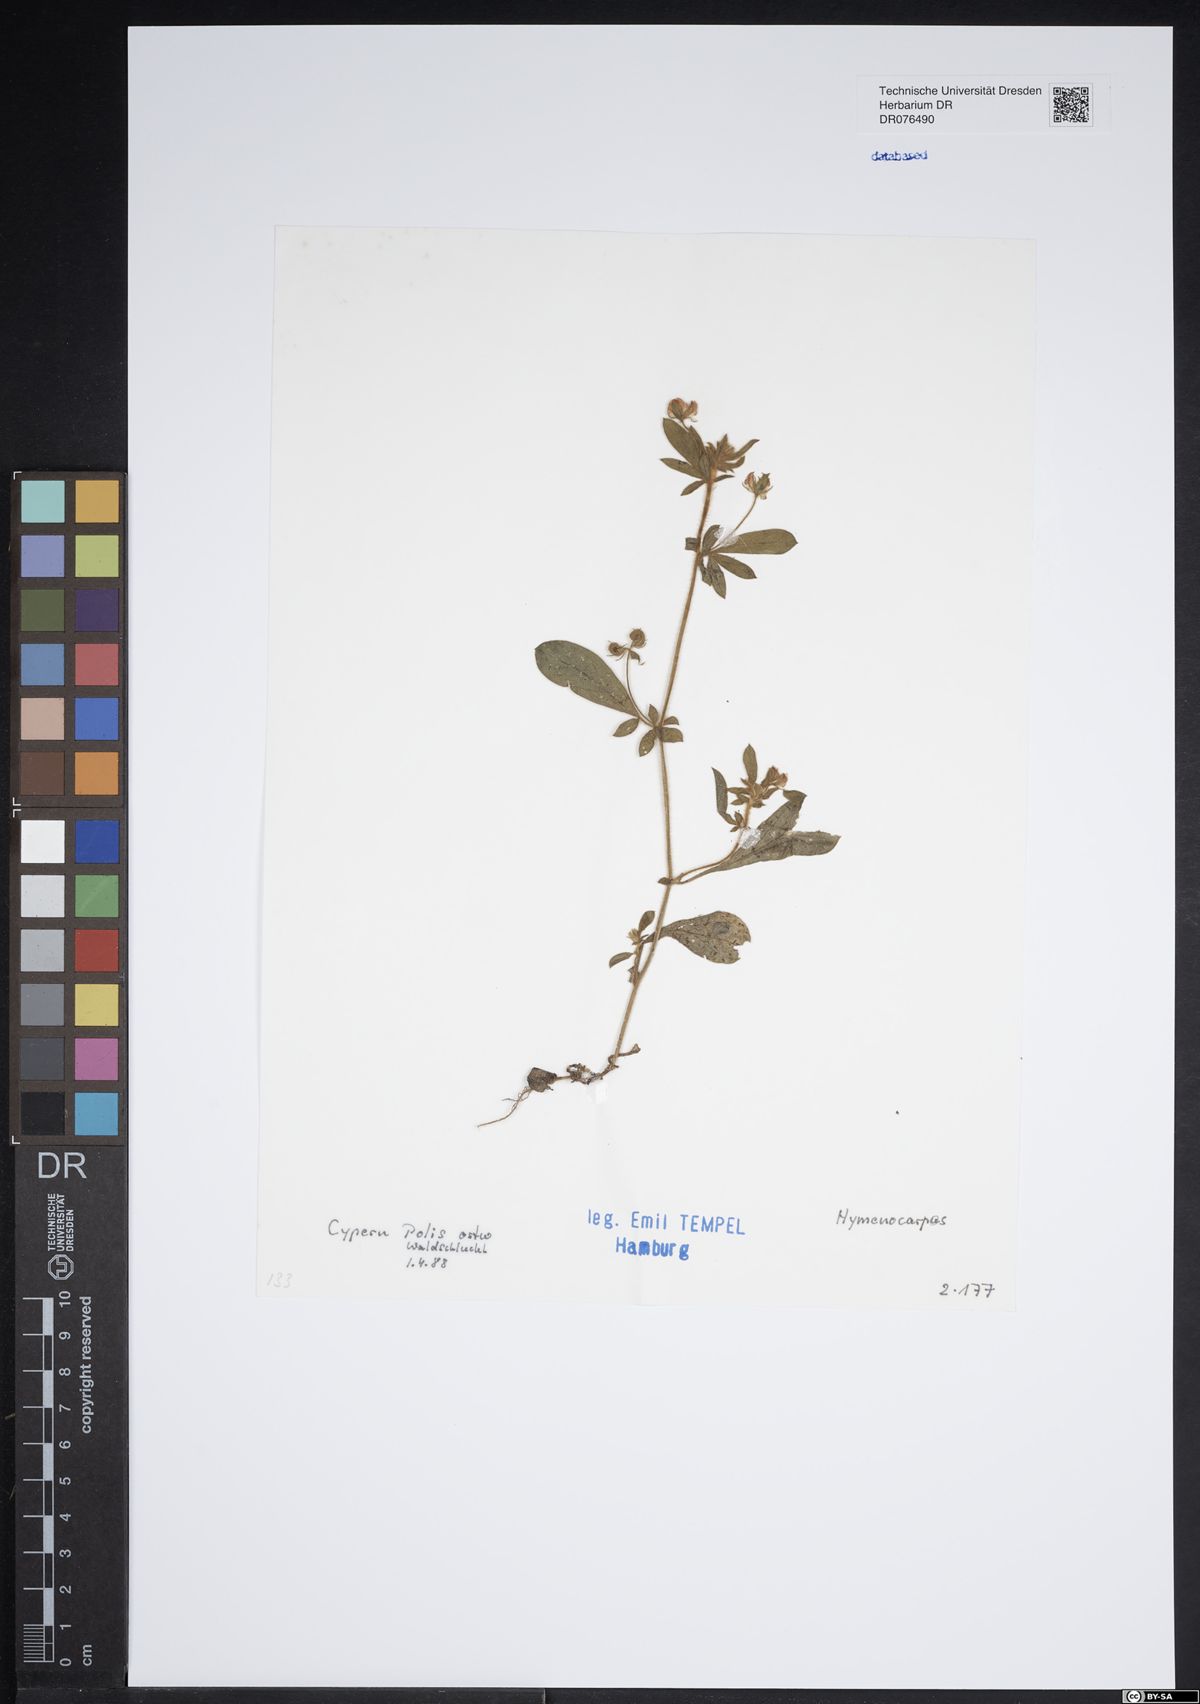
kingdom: Plantae
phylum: Tracheophyta
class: Magnoliopsida
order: Fabales
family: Fabaceae
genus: Anthyllis
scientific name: Anthyllis Hymenocarpos spec
